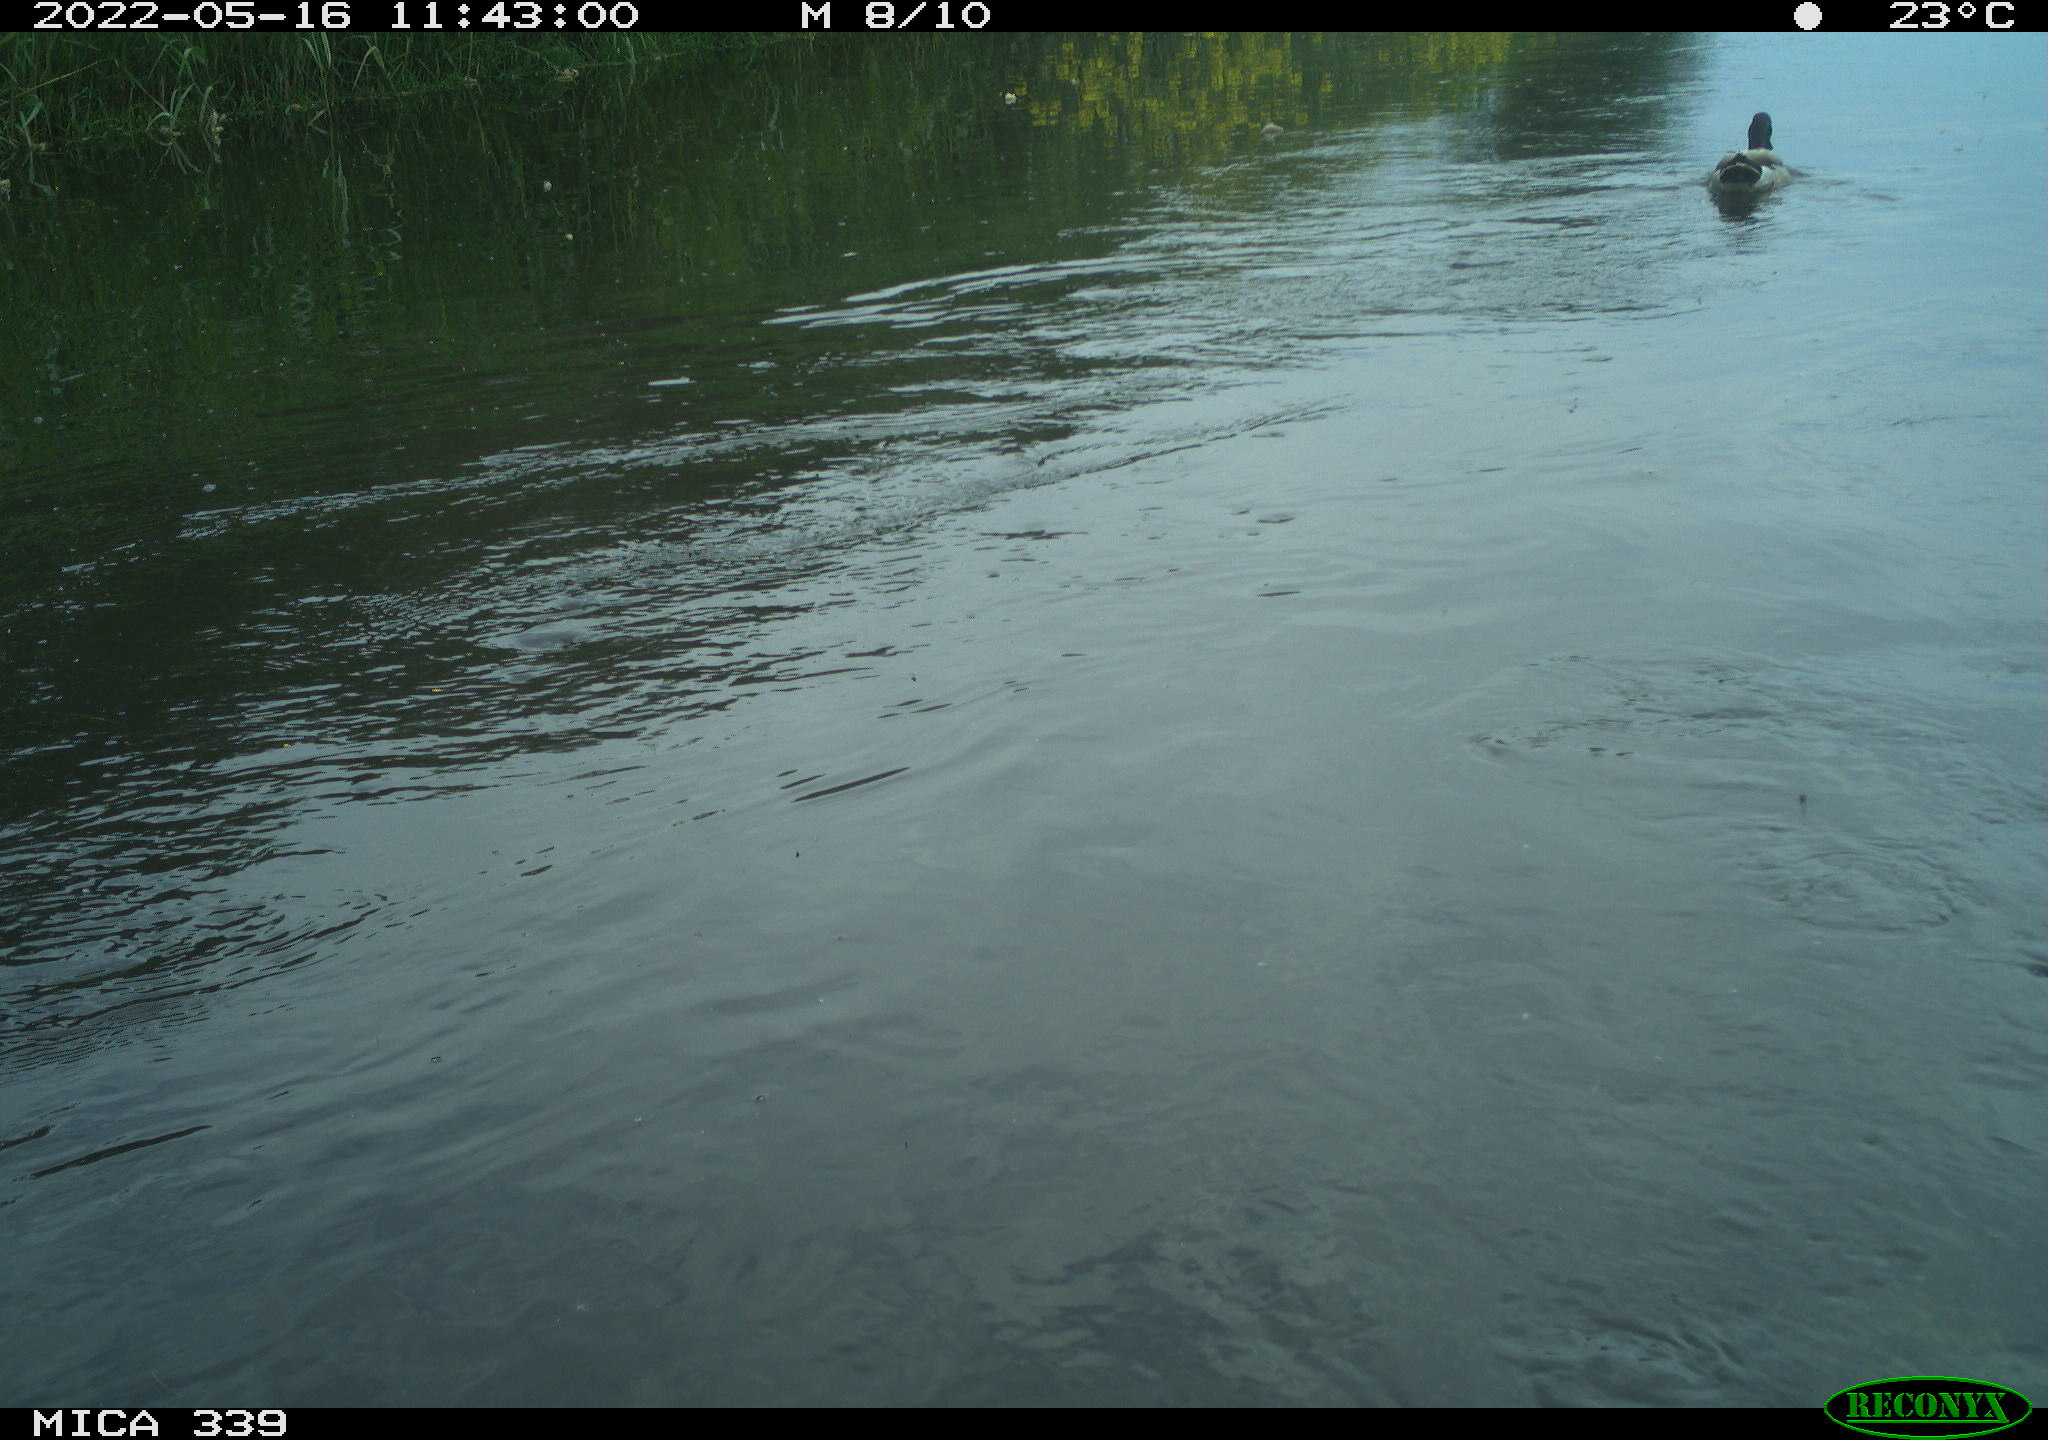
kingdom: Animalia
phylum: Chordata
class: Aves
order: Anseriformes
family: Anatidae
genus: Anas
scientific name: Anas platyrhynchos
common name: Mallard
